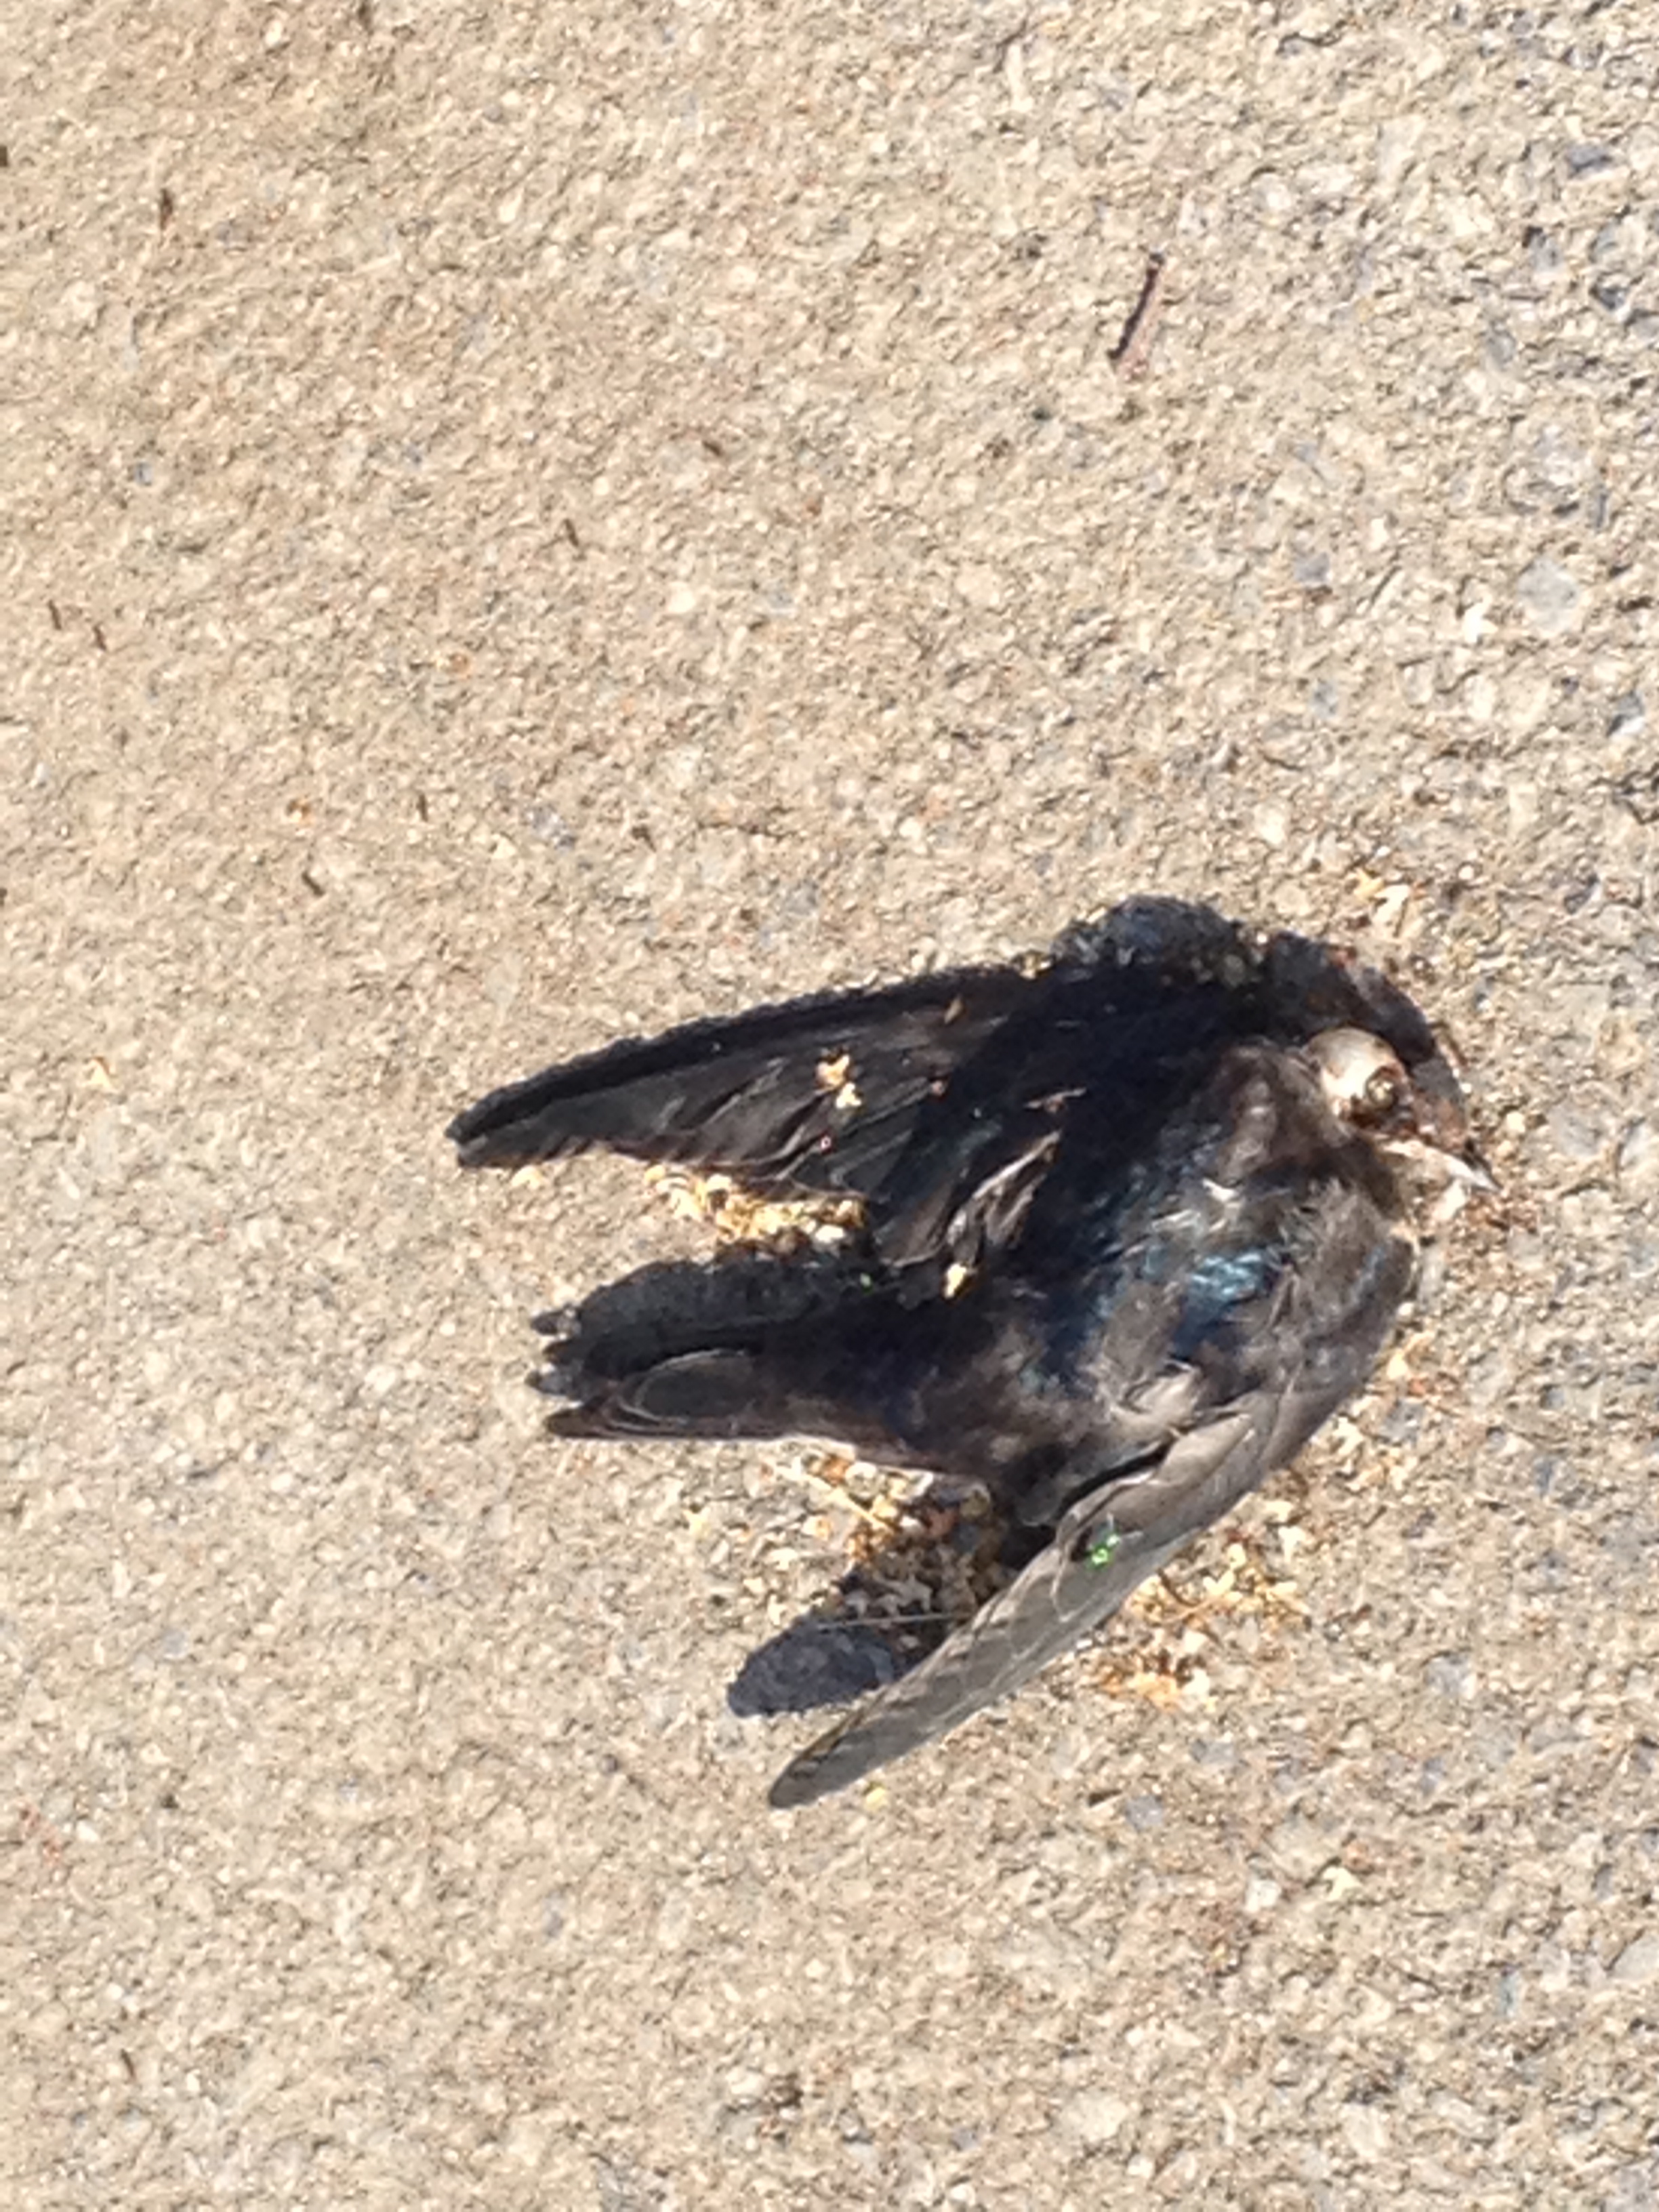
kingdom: Animalia
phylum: Chordata
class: Aves
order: Passeriformes
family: Turdidae
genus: Turdus
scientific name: Turdus merula
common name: Common blackbird
